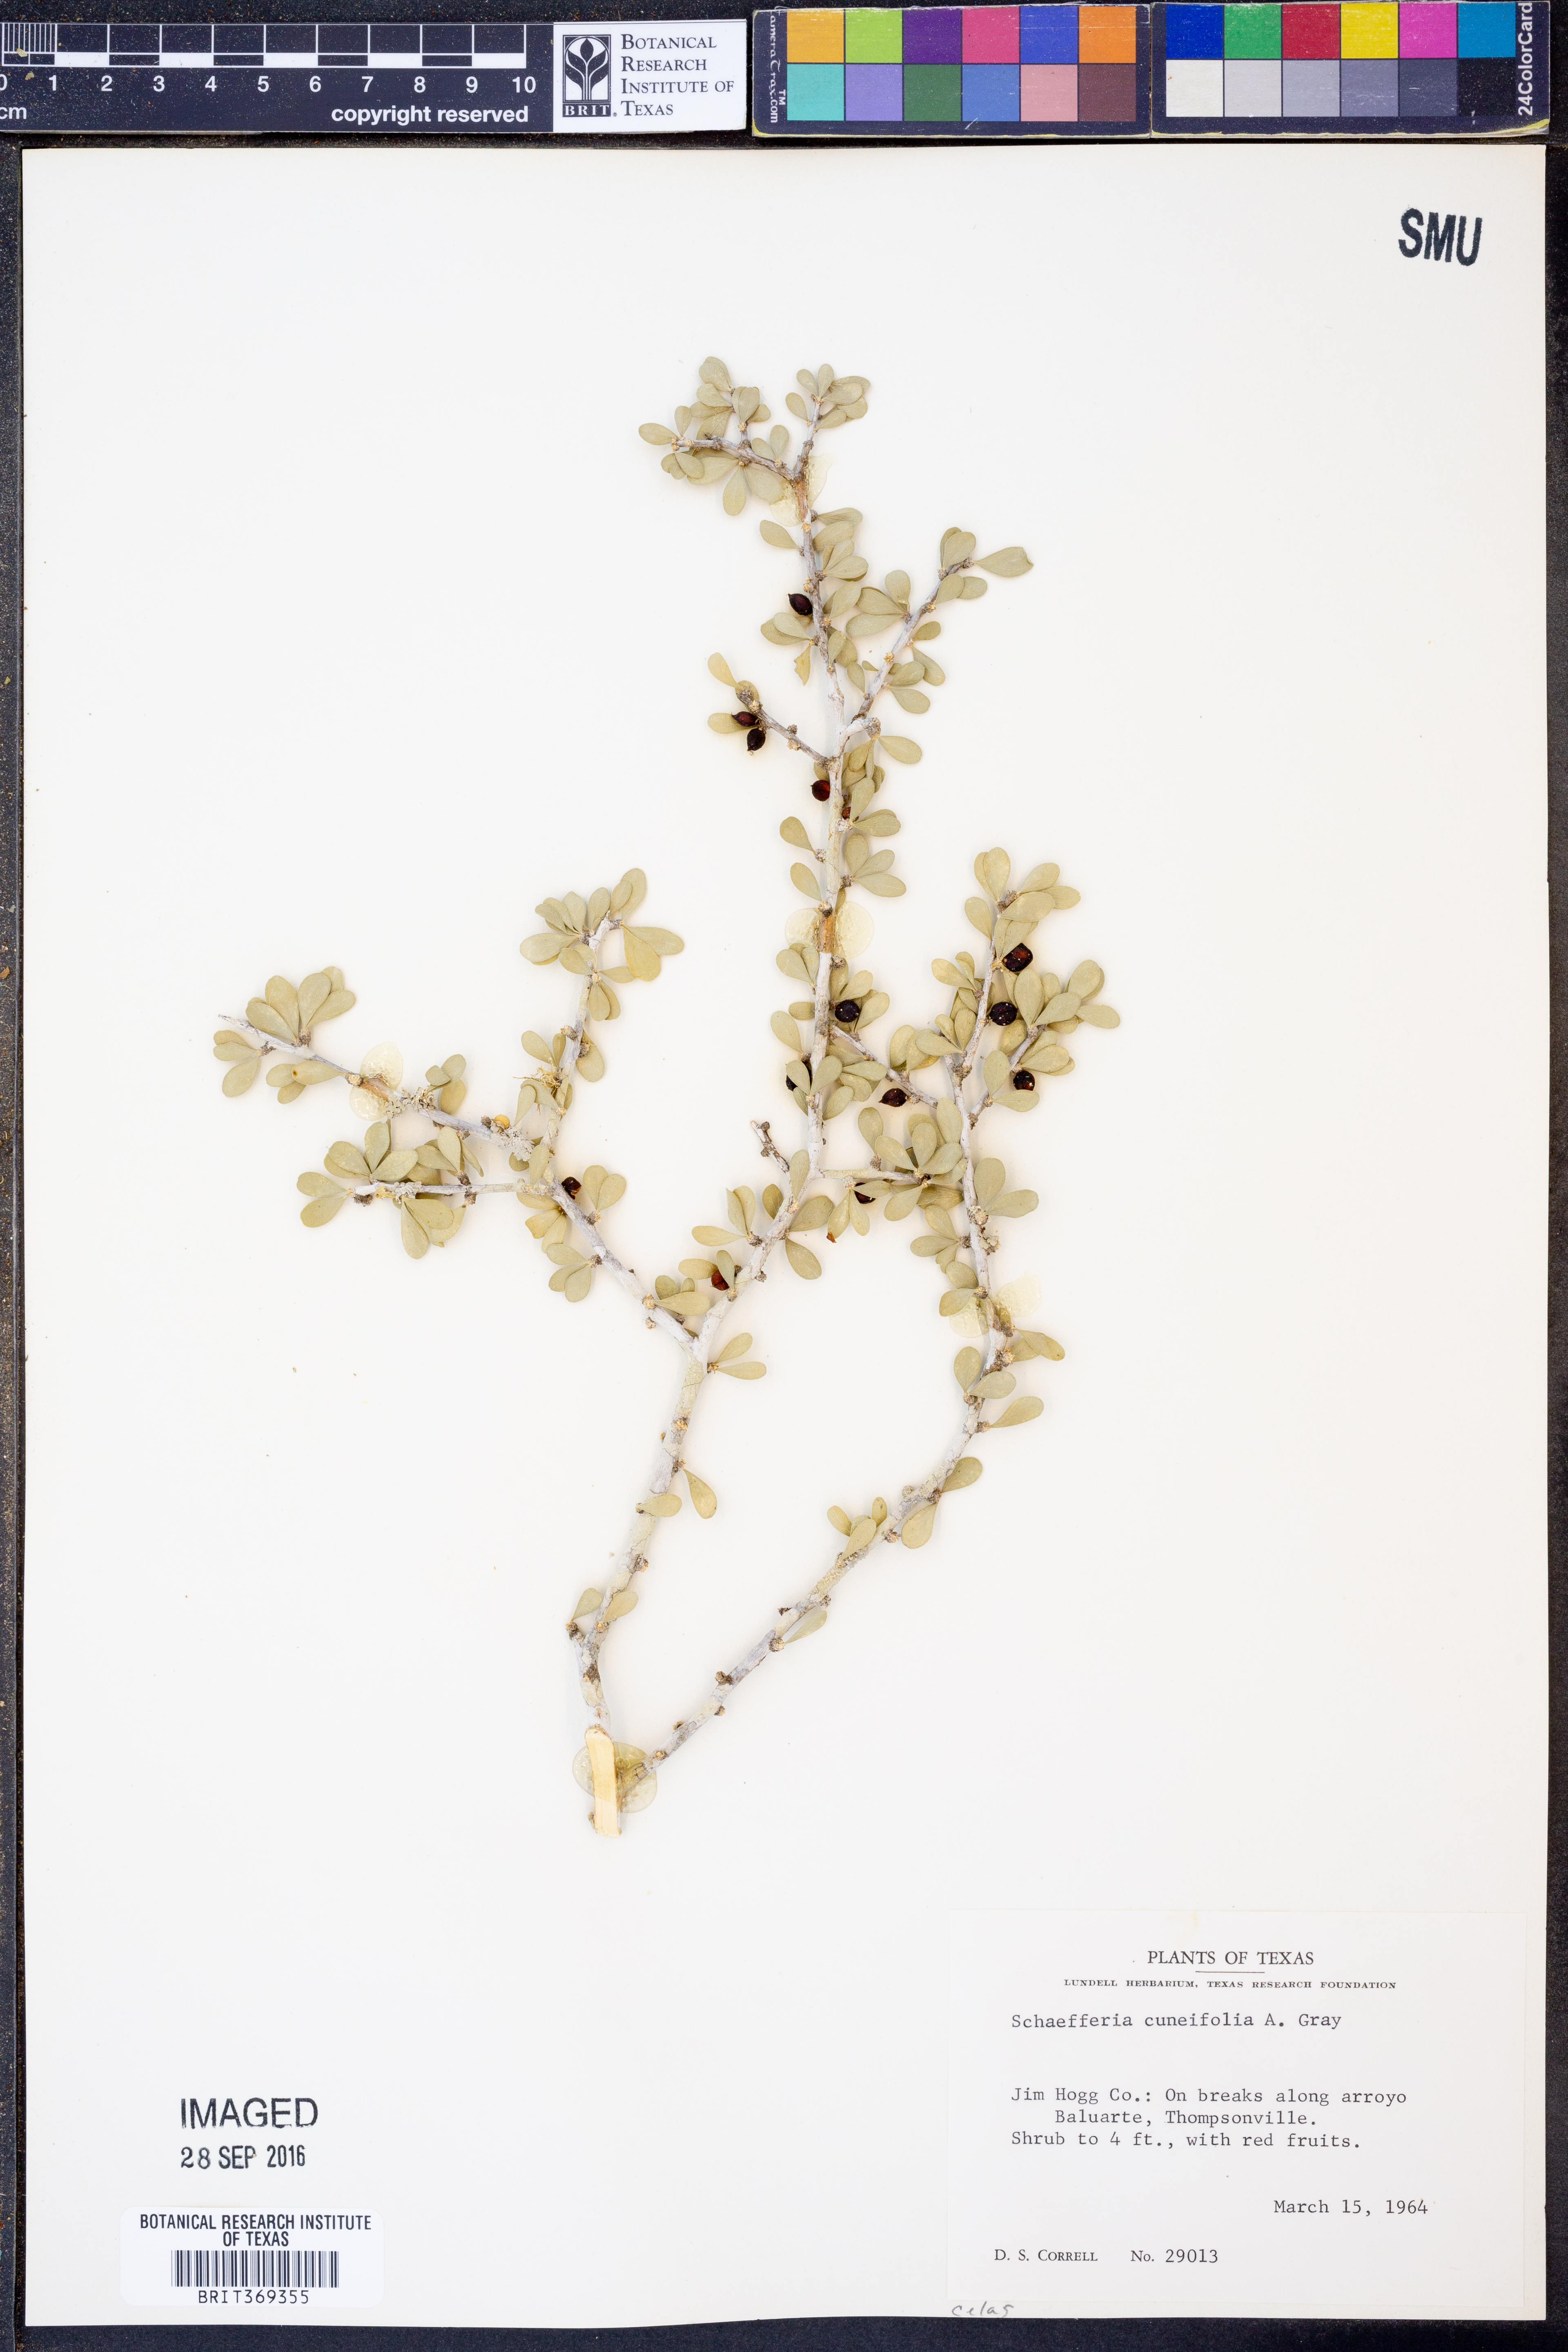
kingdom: Plantae
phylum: Tracheophyta
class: Magnoliopsida
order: Celastrales
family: Celastraceae
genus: Schaefferia
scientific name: Schaefferia cuneifolia
